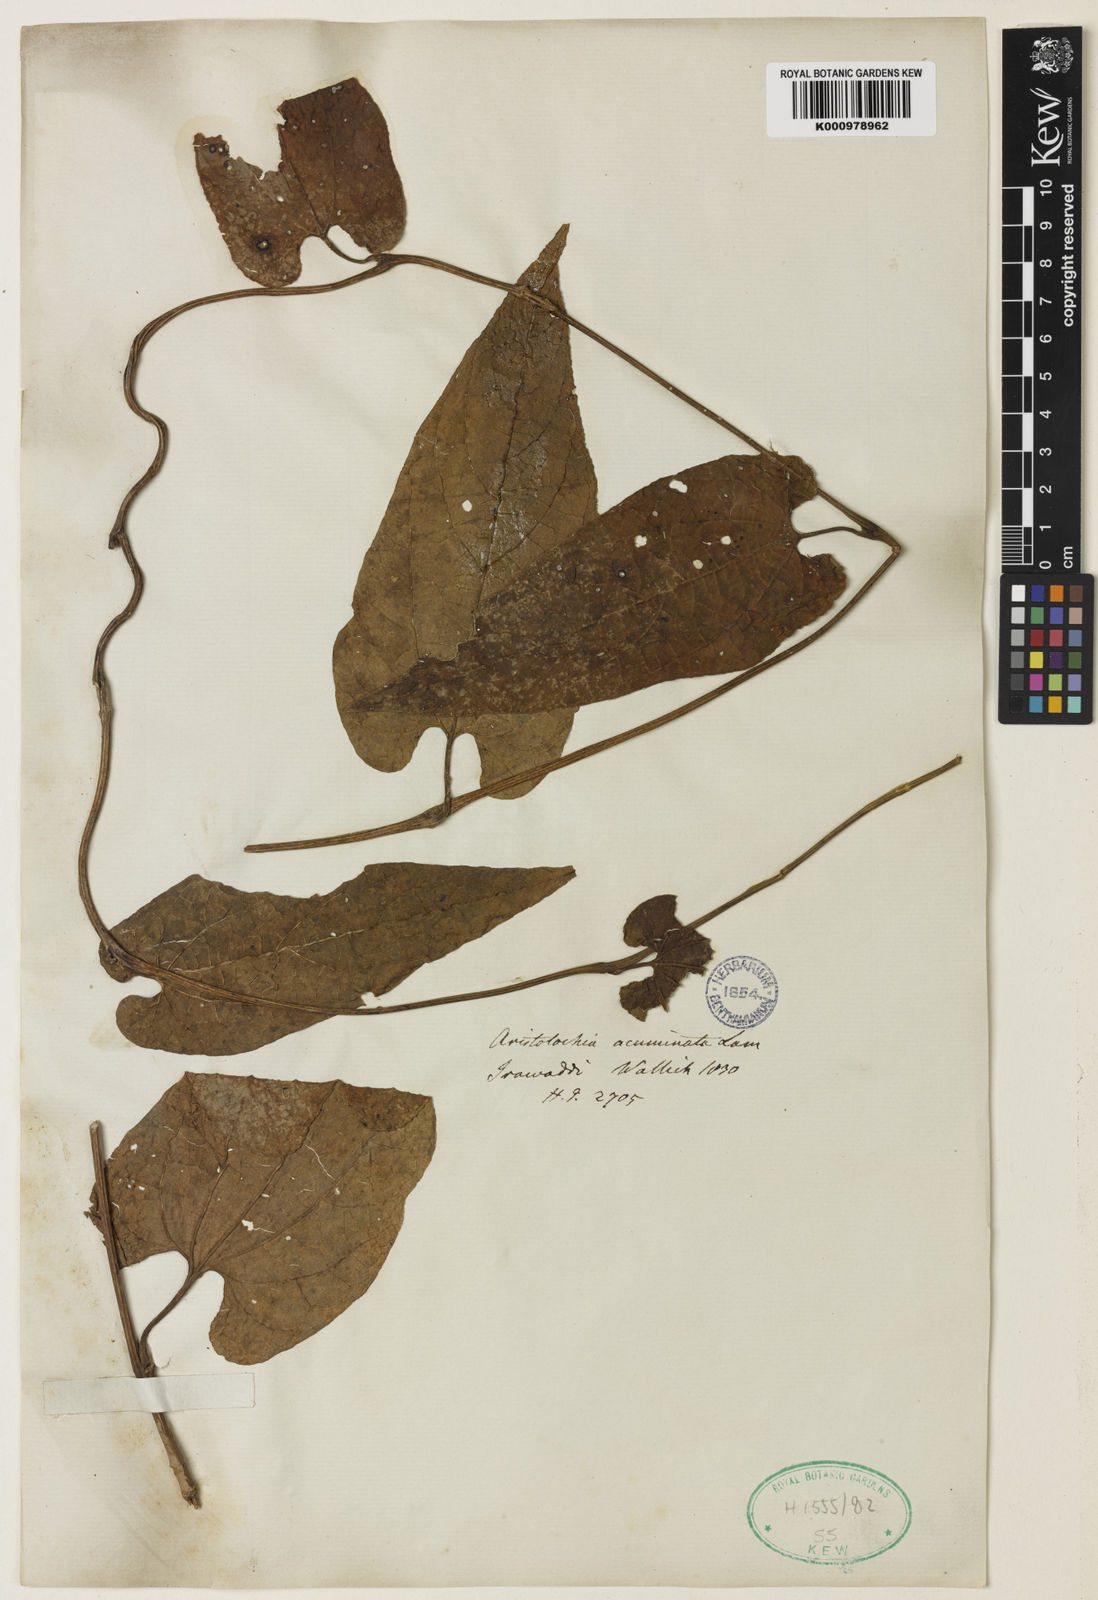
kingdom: Plantae
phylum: Tracheophyta
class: Magnoliopsida
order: Piperales
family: Aristolochiaceae
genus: Aristolochia
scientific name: Aristolochia acuminata
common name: Indian birthwort
